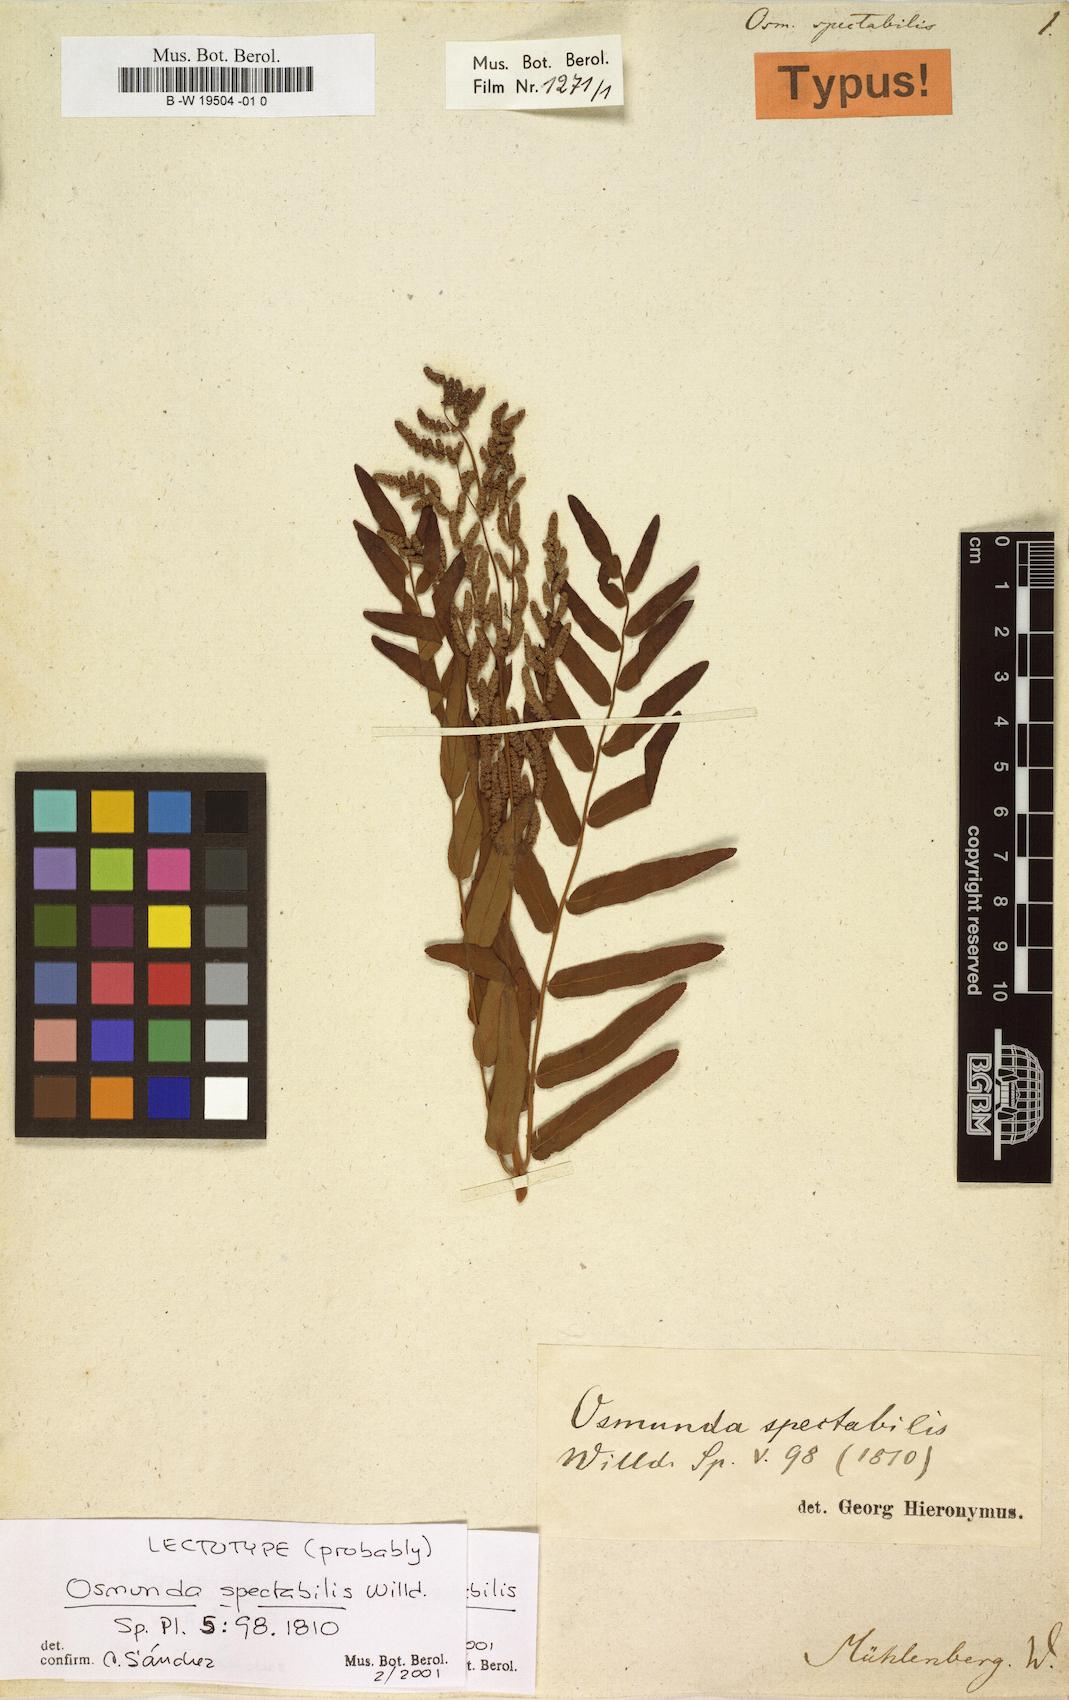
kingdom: Plantae
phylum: Tracheophyta
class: Polypodiopsida
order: Osmundales
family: Osmundaceae
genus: Osmunda
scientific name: Osmunda spectabilis
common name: American royal fern
